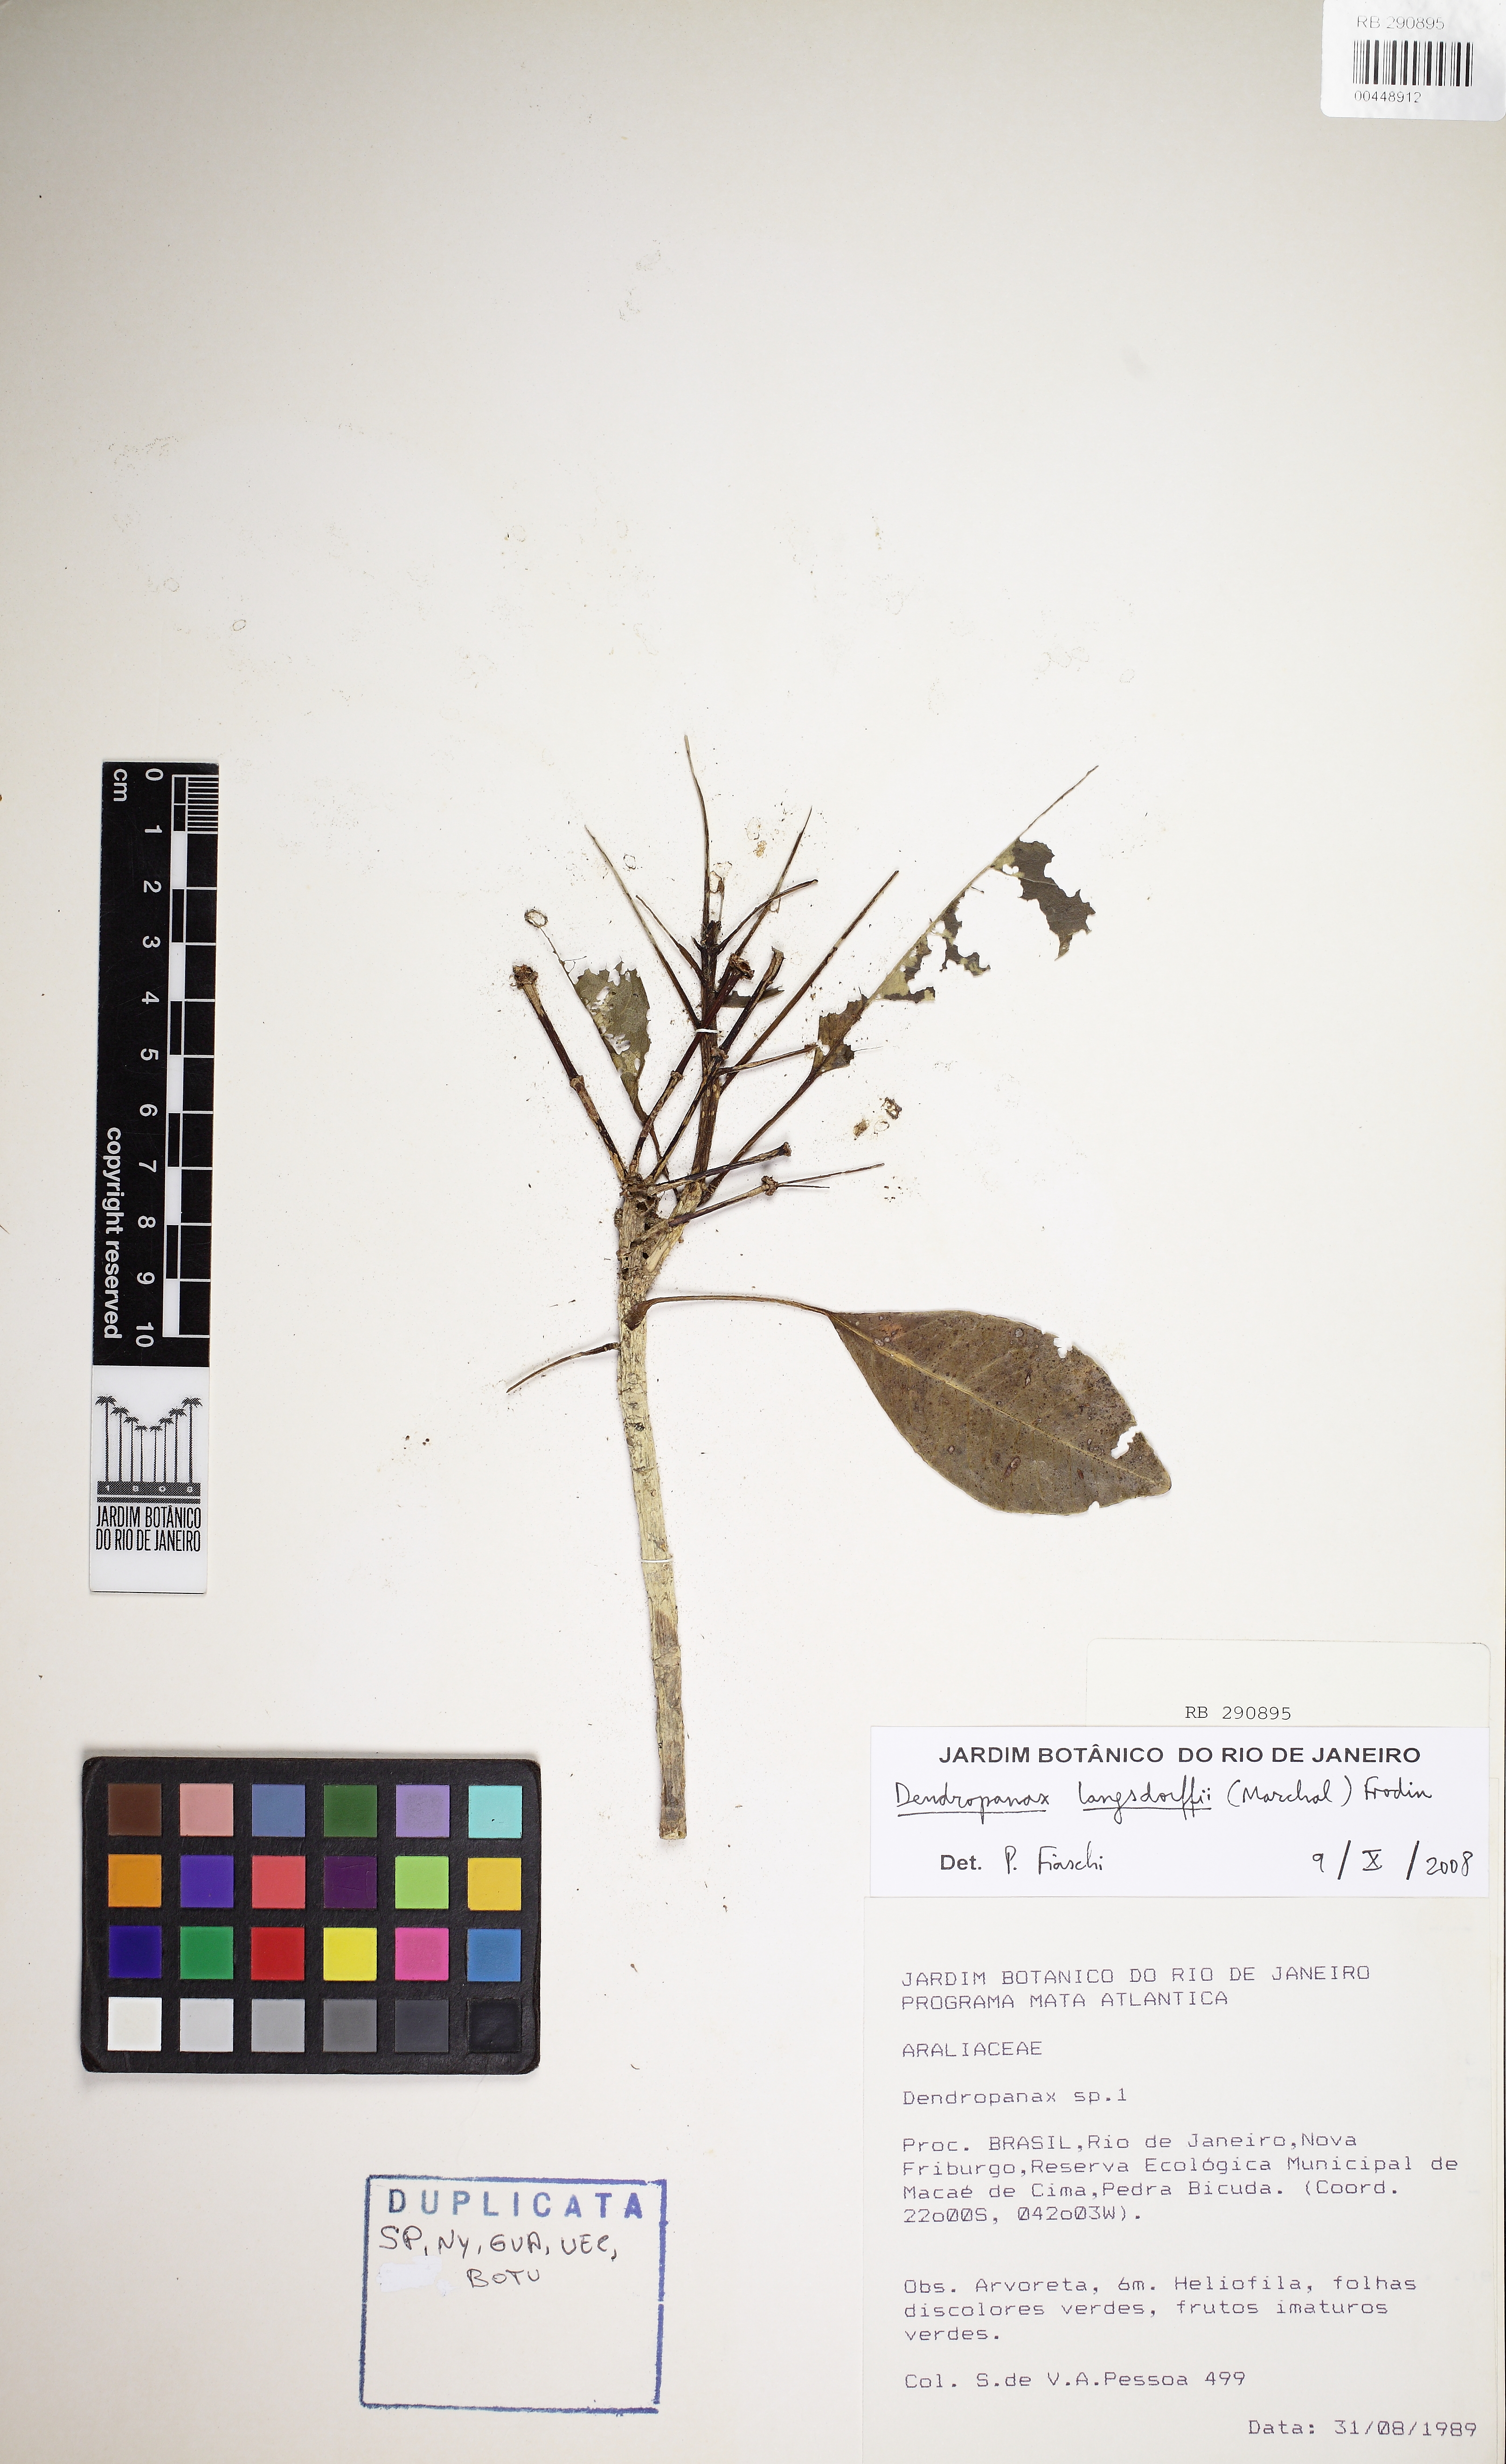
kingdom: Plantae
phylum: Tracheophyta
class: Magnoliopsida
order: Apiales
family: Araliaceae
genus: Dendropanax
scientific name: Dendropanax
